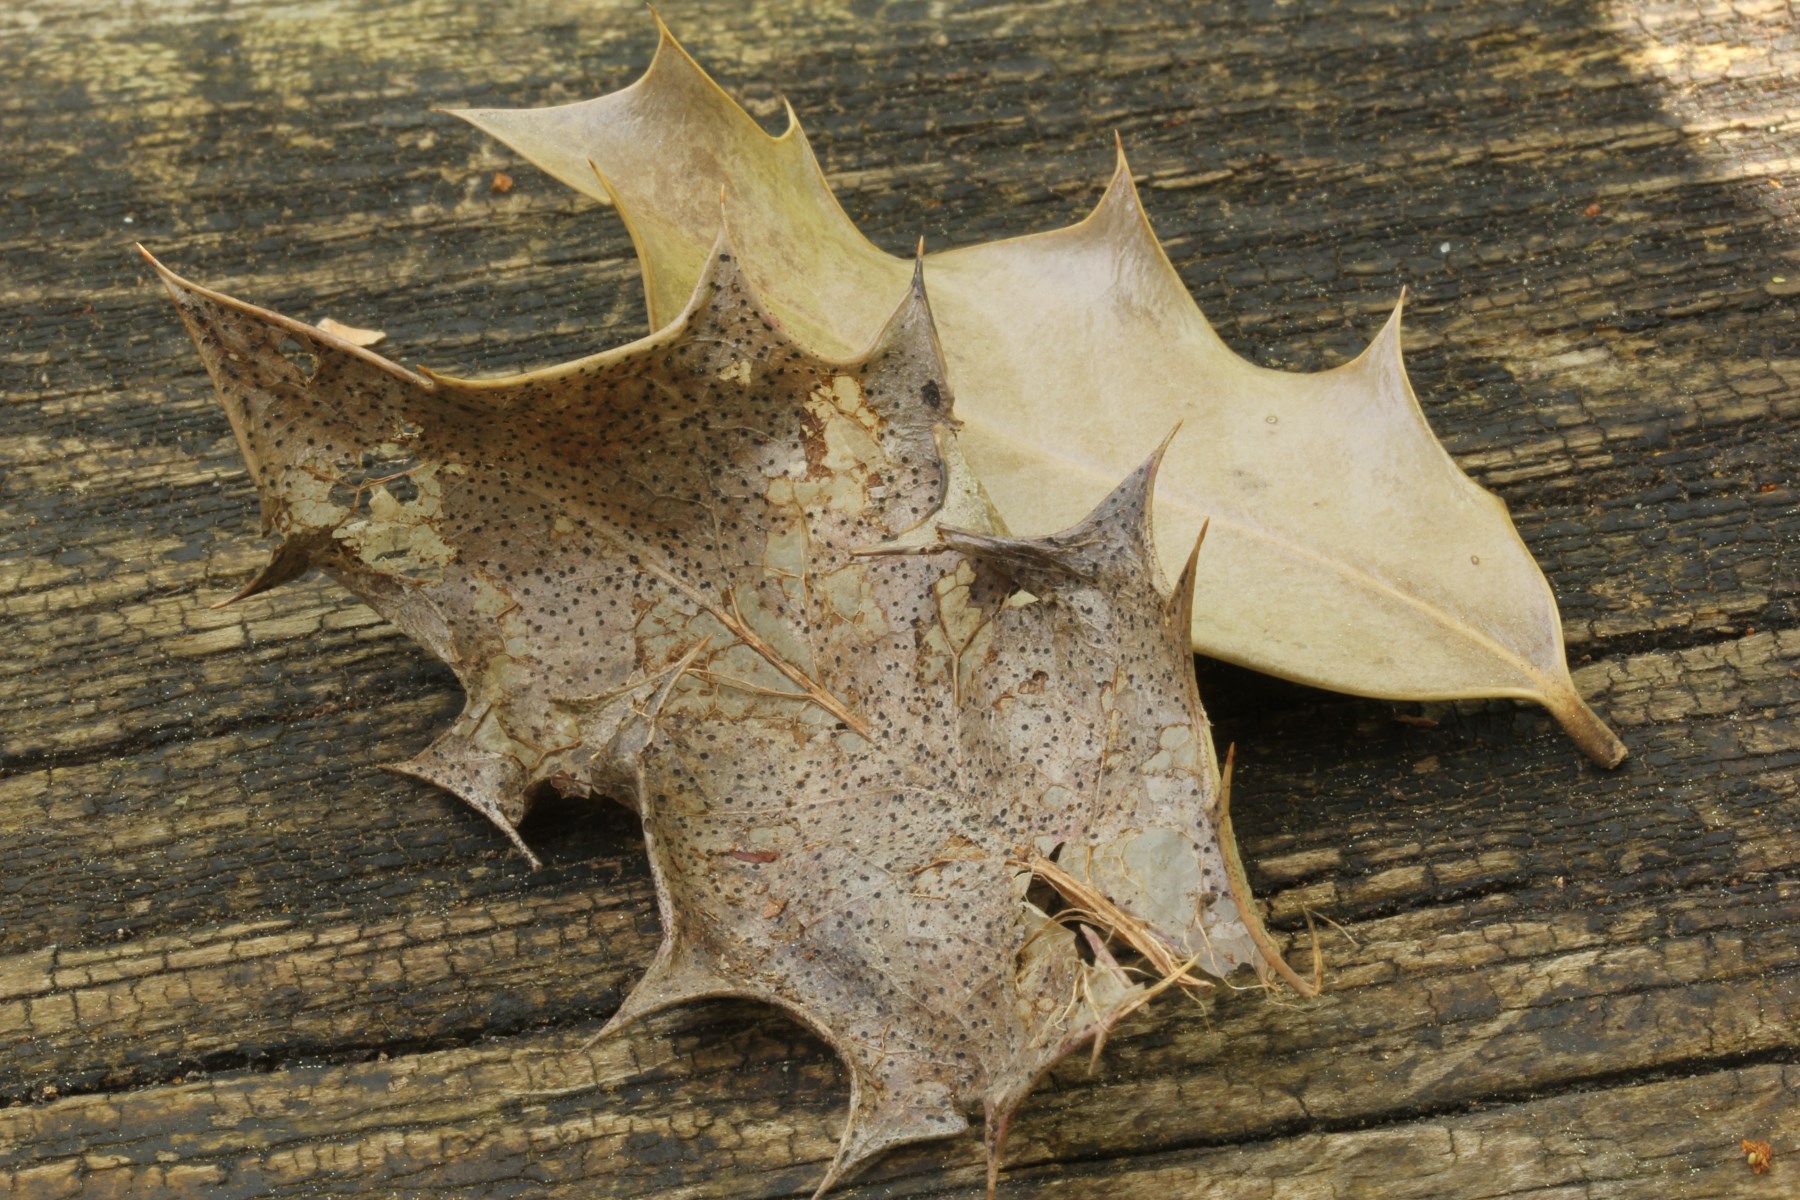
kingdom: Fungi
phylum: Ascomycota
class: Leotiomycetes
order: Helotiales
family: Cenangiaceae
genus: Trochila
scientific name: Trochila ilicina
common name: kristtorn-lågskive
